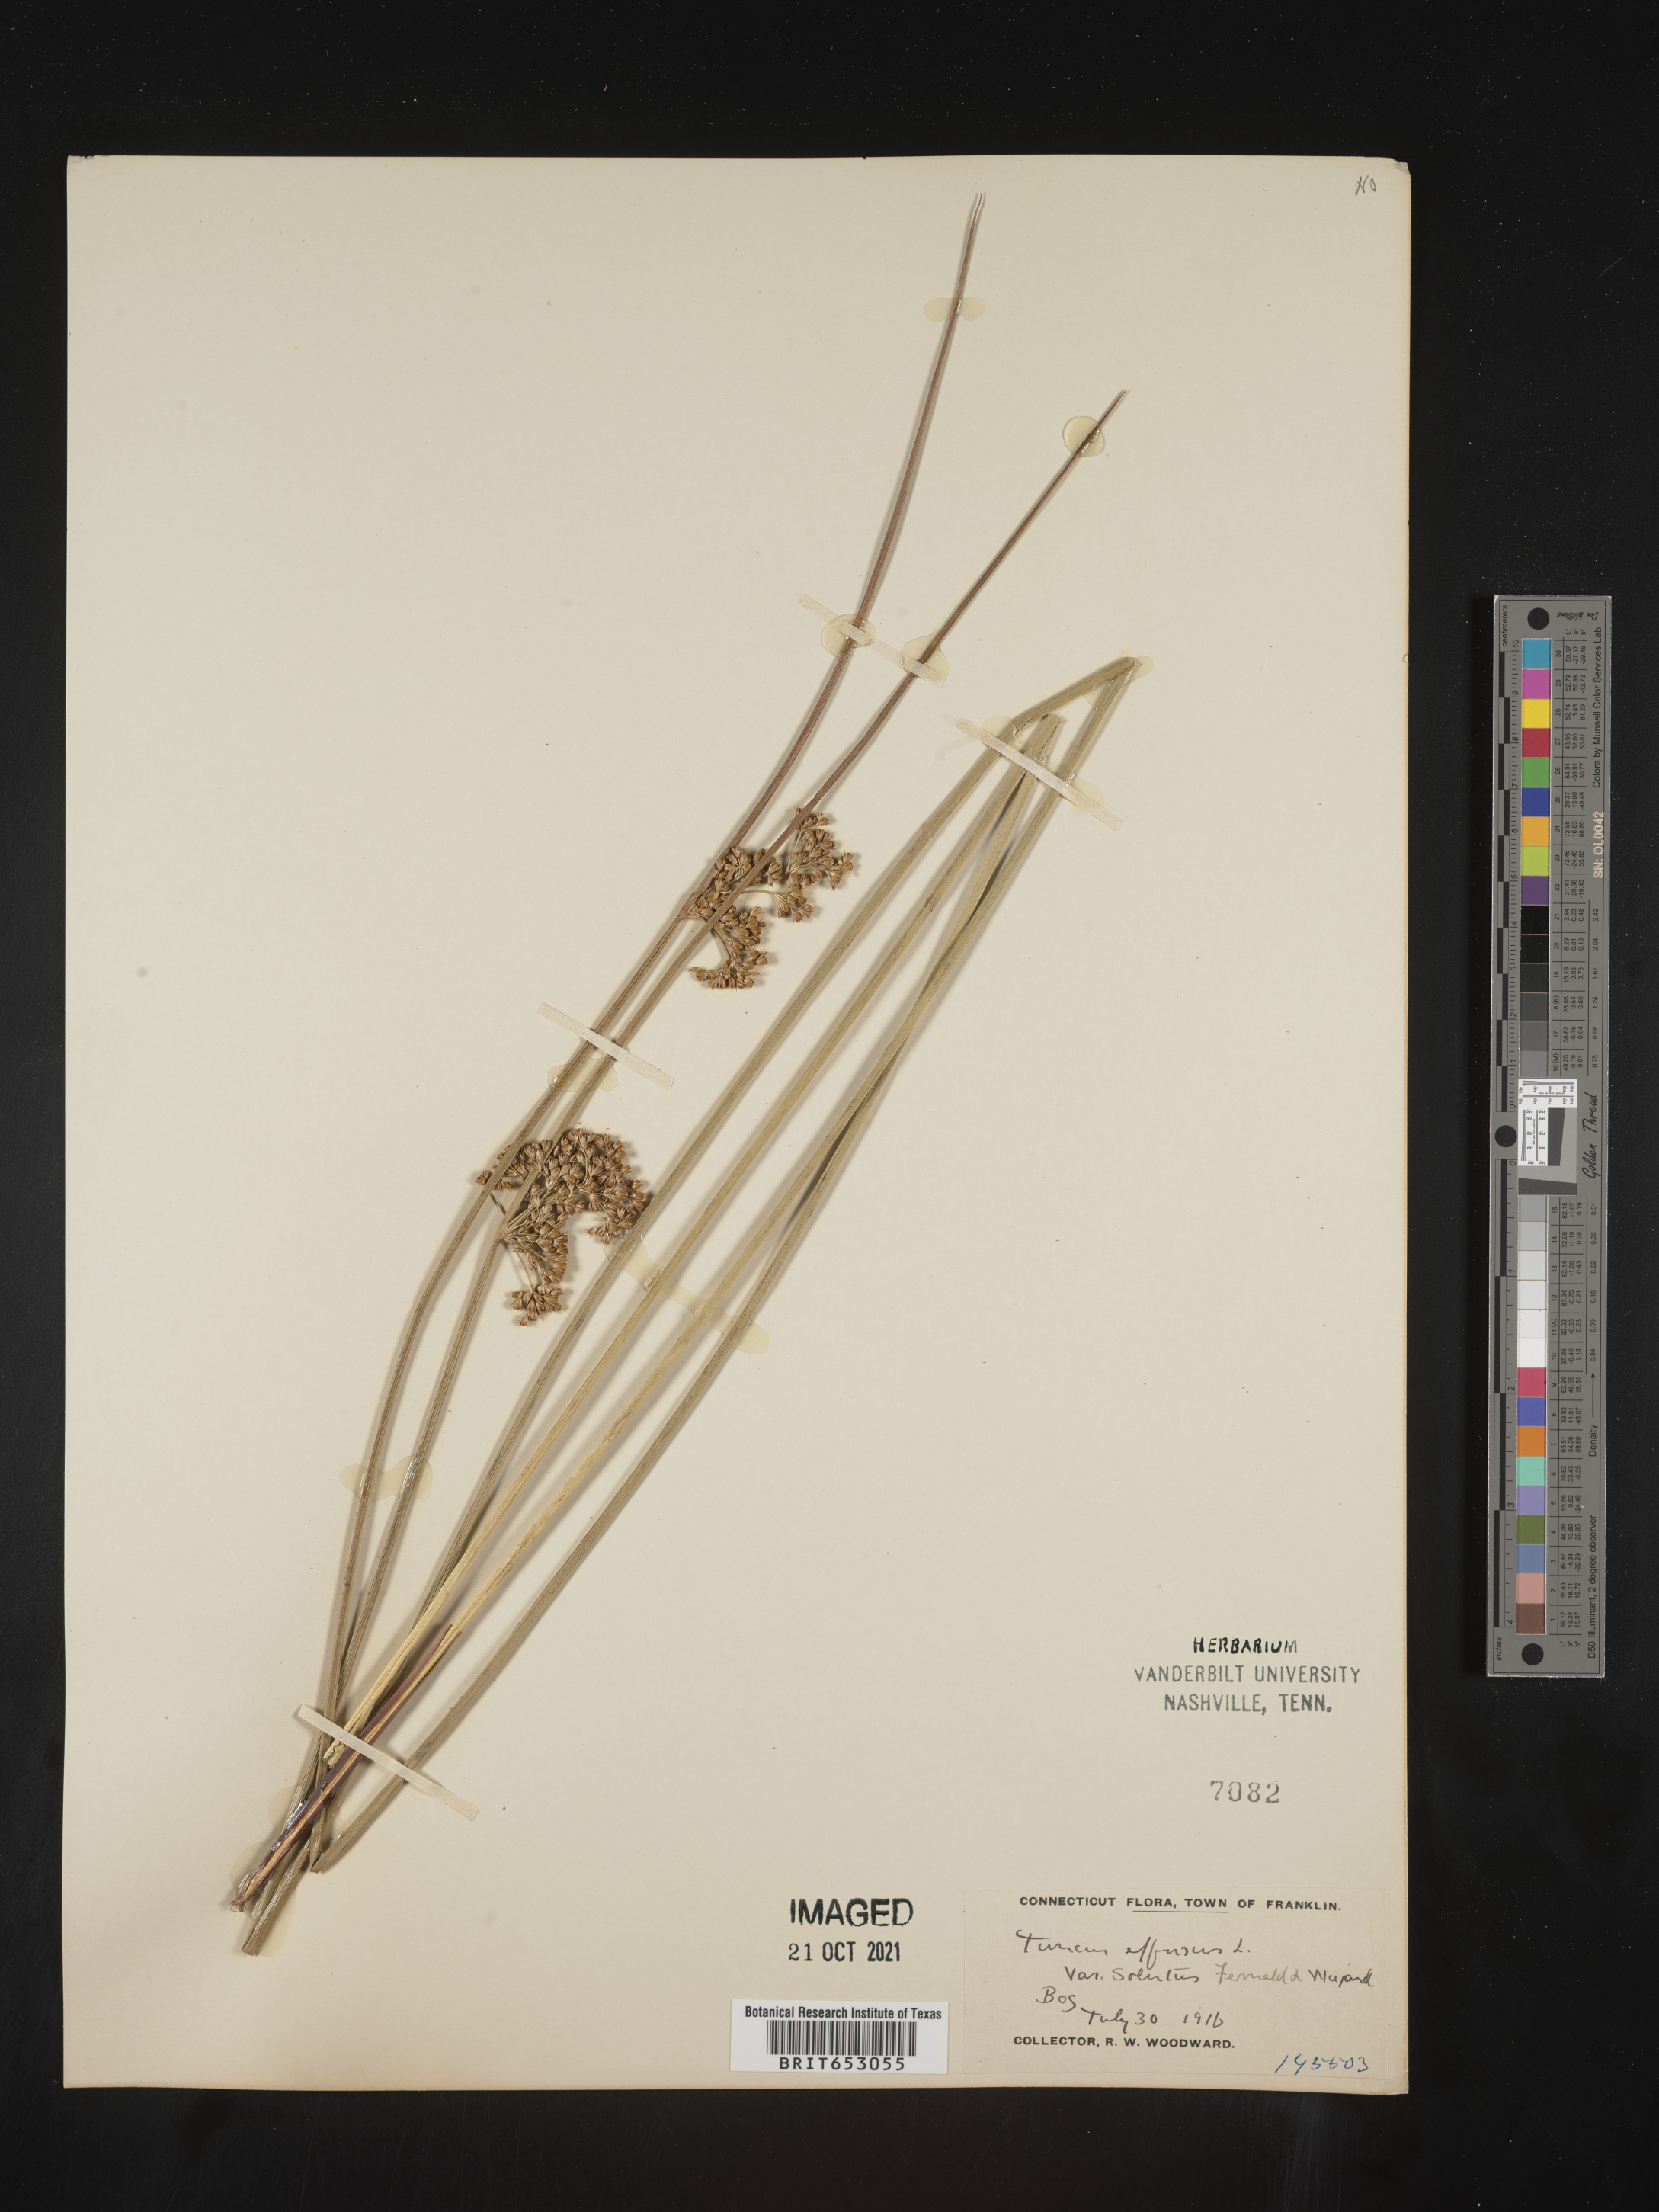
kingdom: Plantae
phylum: Tracheophyta
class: Liliopsida
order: Poales
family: Juncaceae
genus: Juncus
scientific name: Juncus effusus
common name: Soft rush
